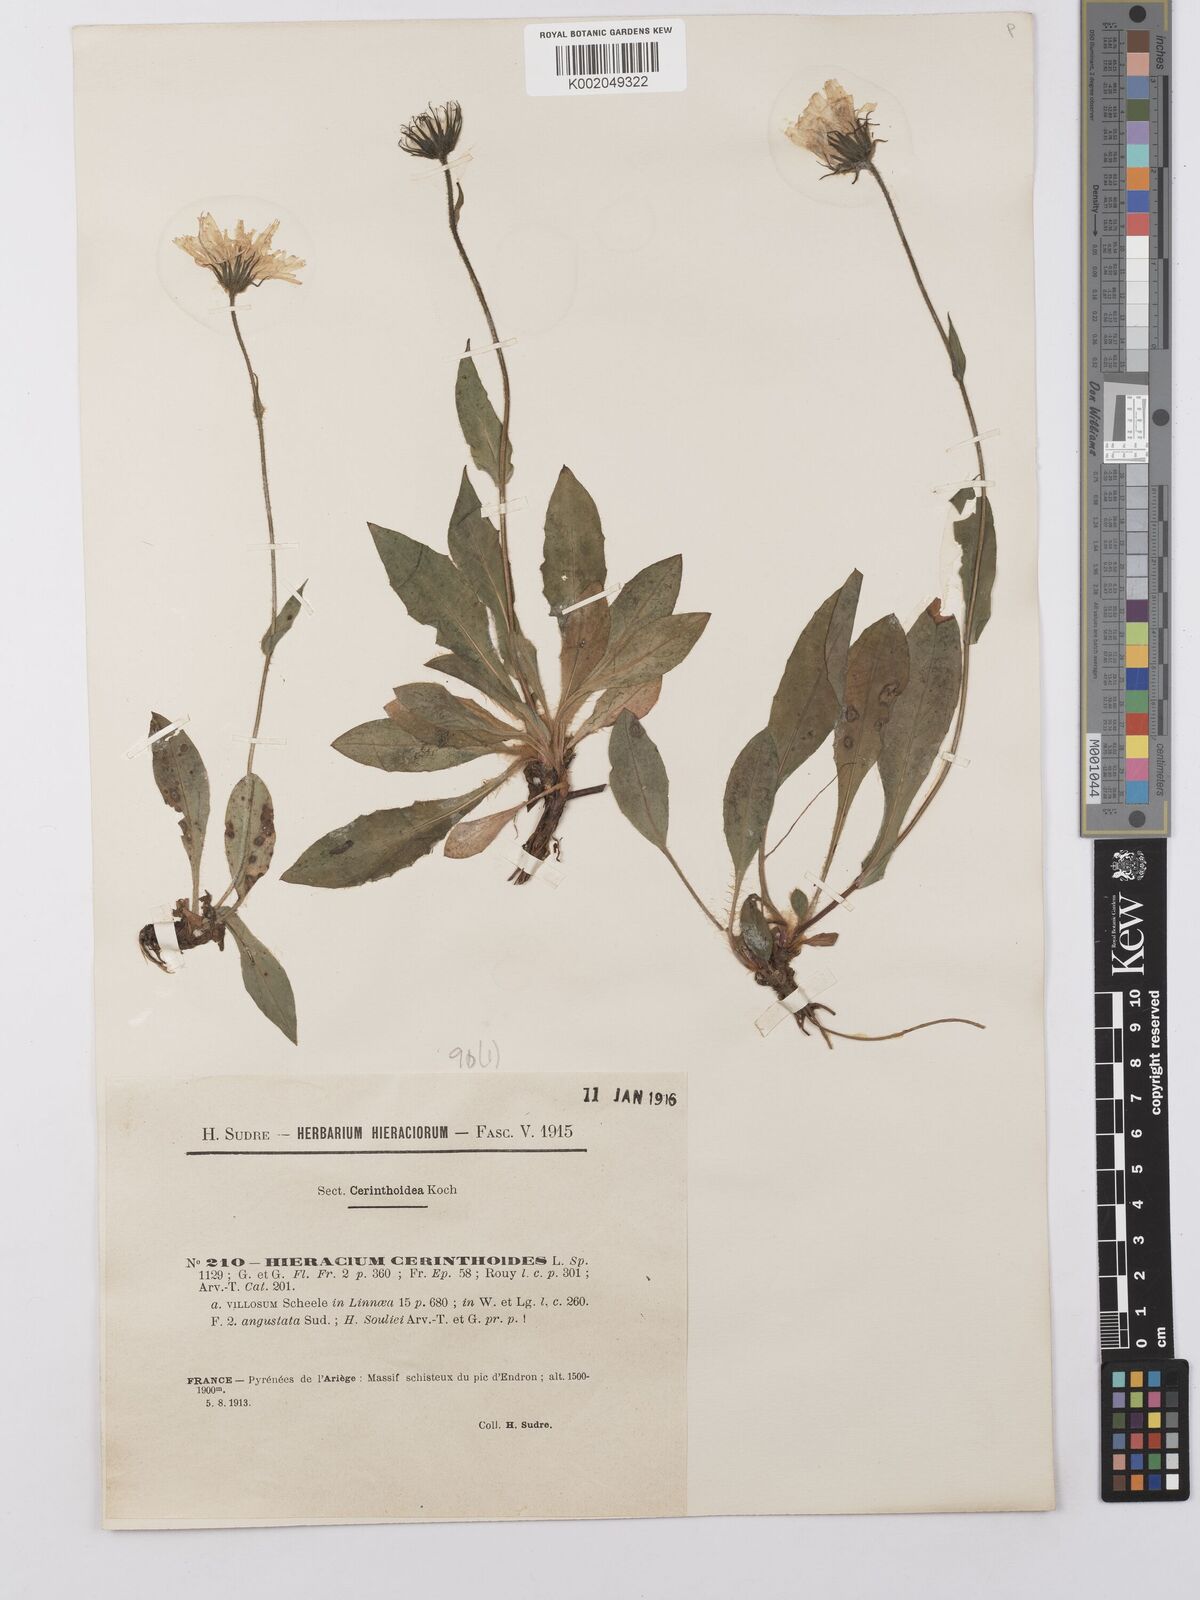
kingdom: Plantae
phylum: Tracheophyta
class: Magnoliopsida
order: Asterales
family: Asteraceae
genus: Hieracium
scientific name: Hieracium cerinthoides
